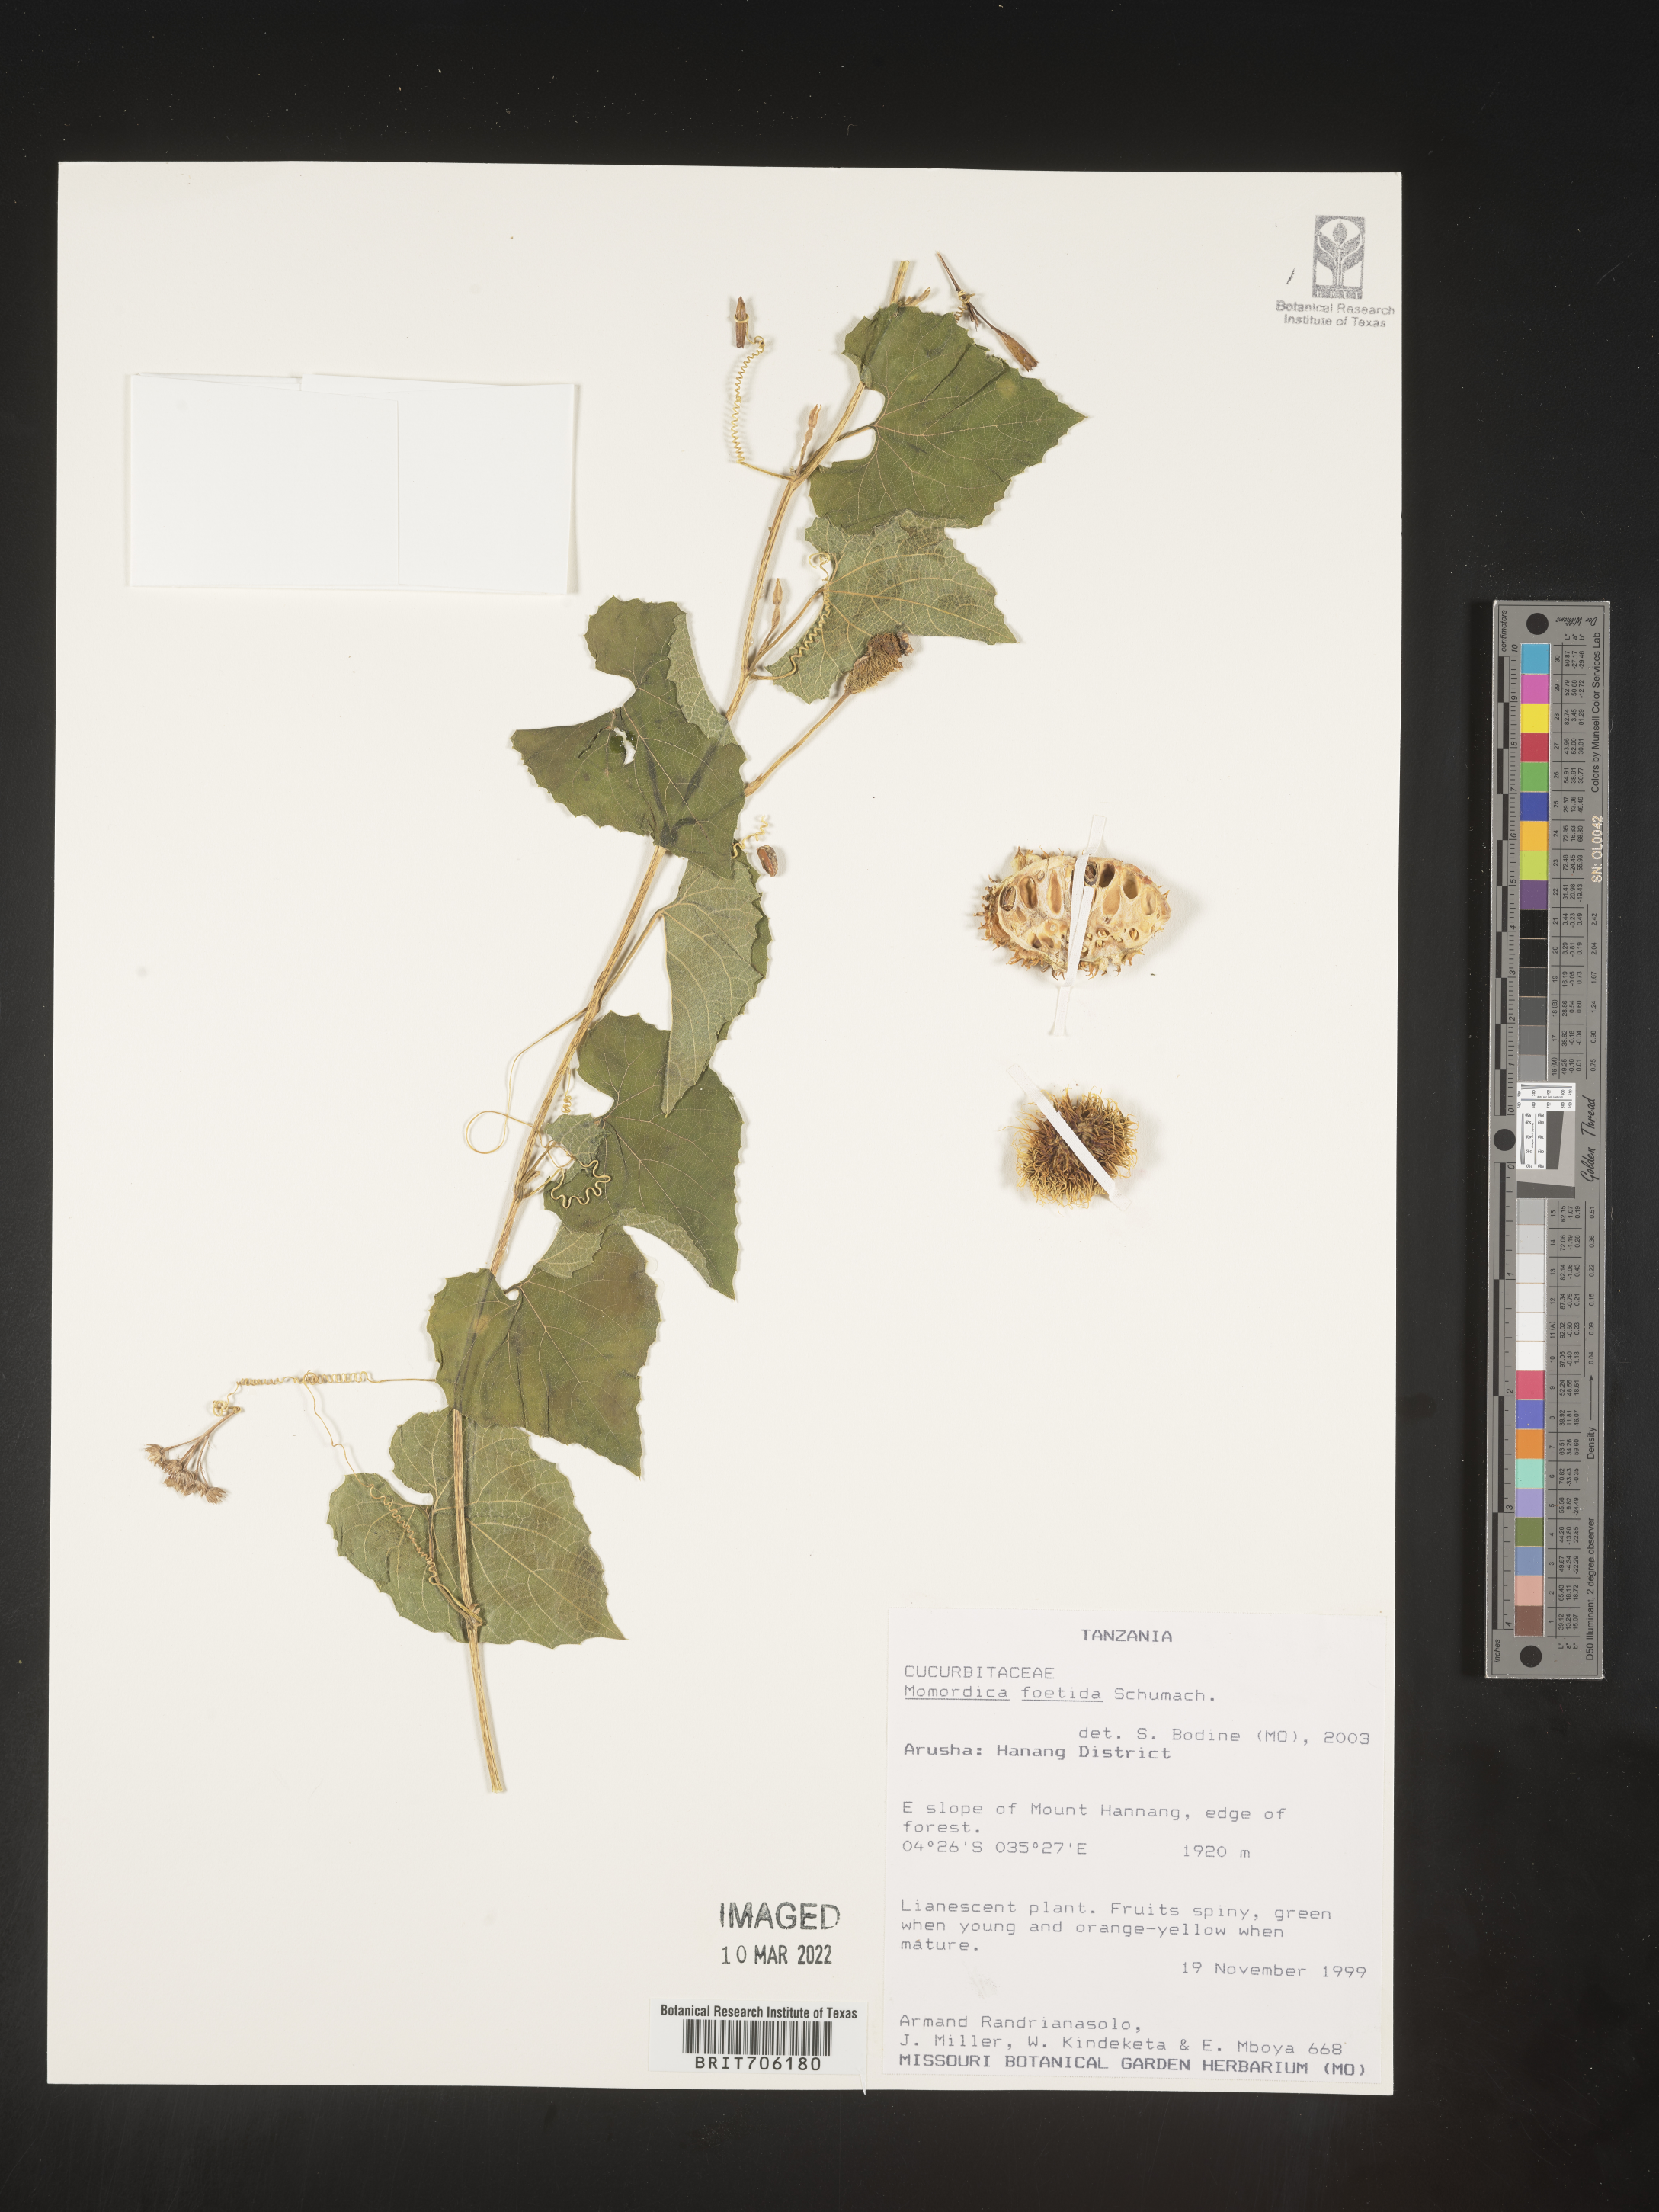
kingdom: Plantae
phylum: Tracheophyta
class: Magnoliopsida
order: Cucurbitales
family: Cucurbitaceae
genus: Momordica
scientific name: Momordica
